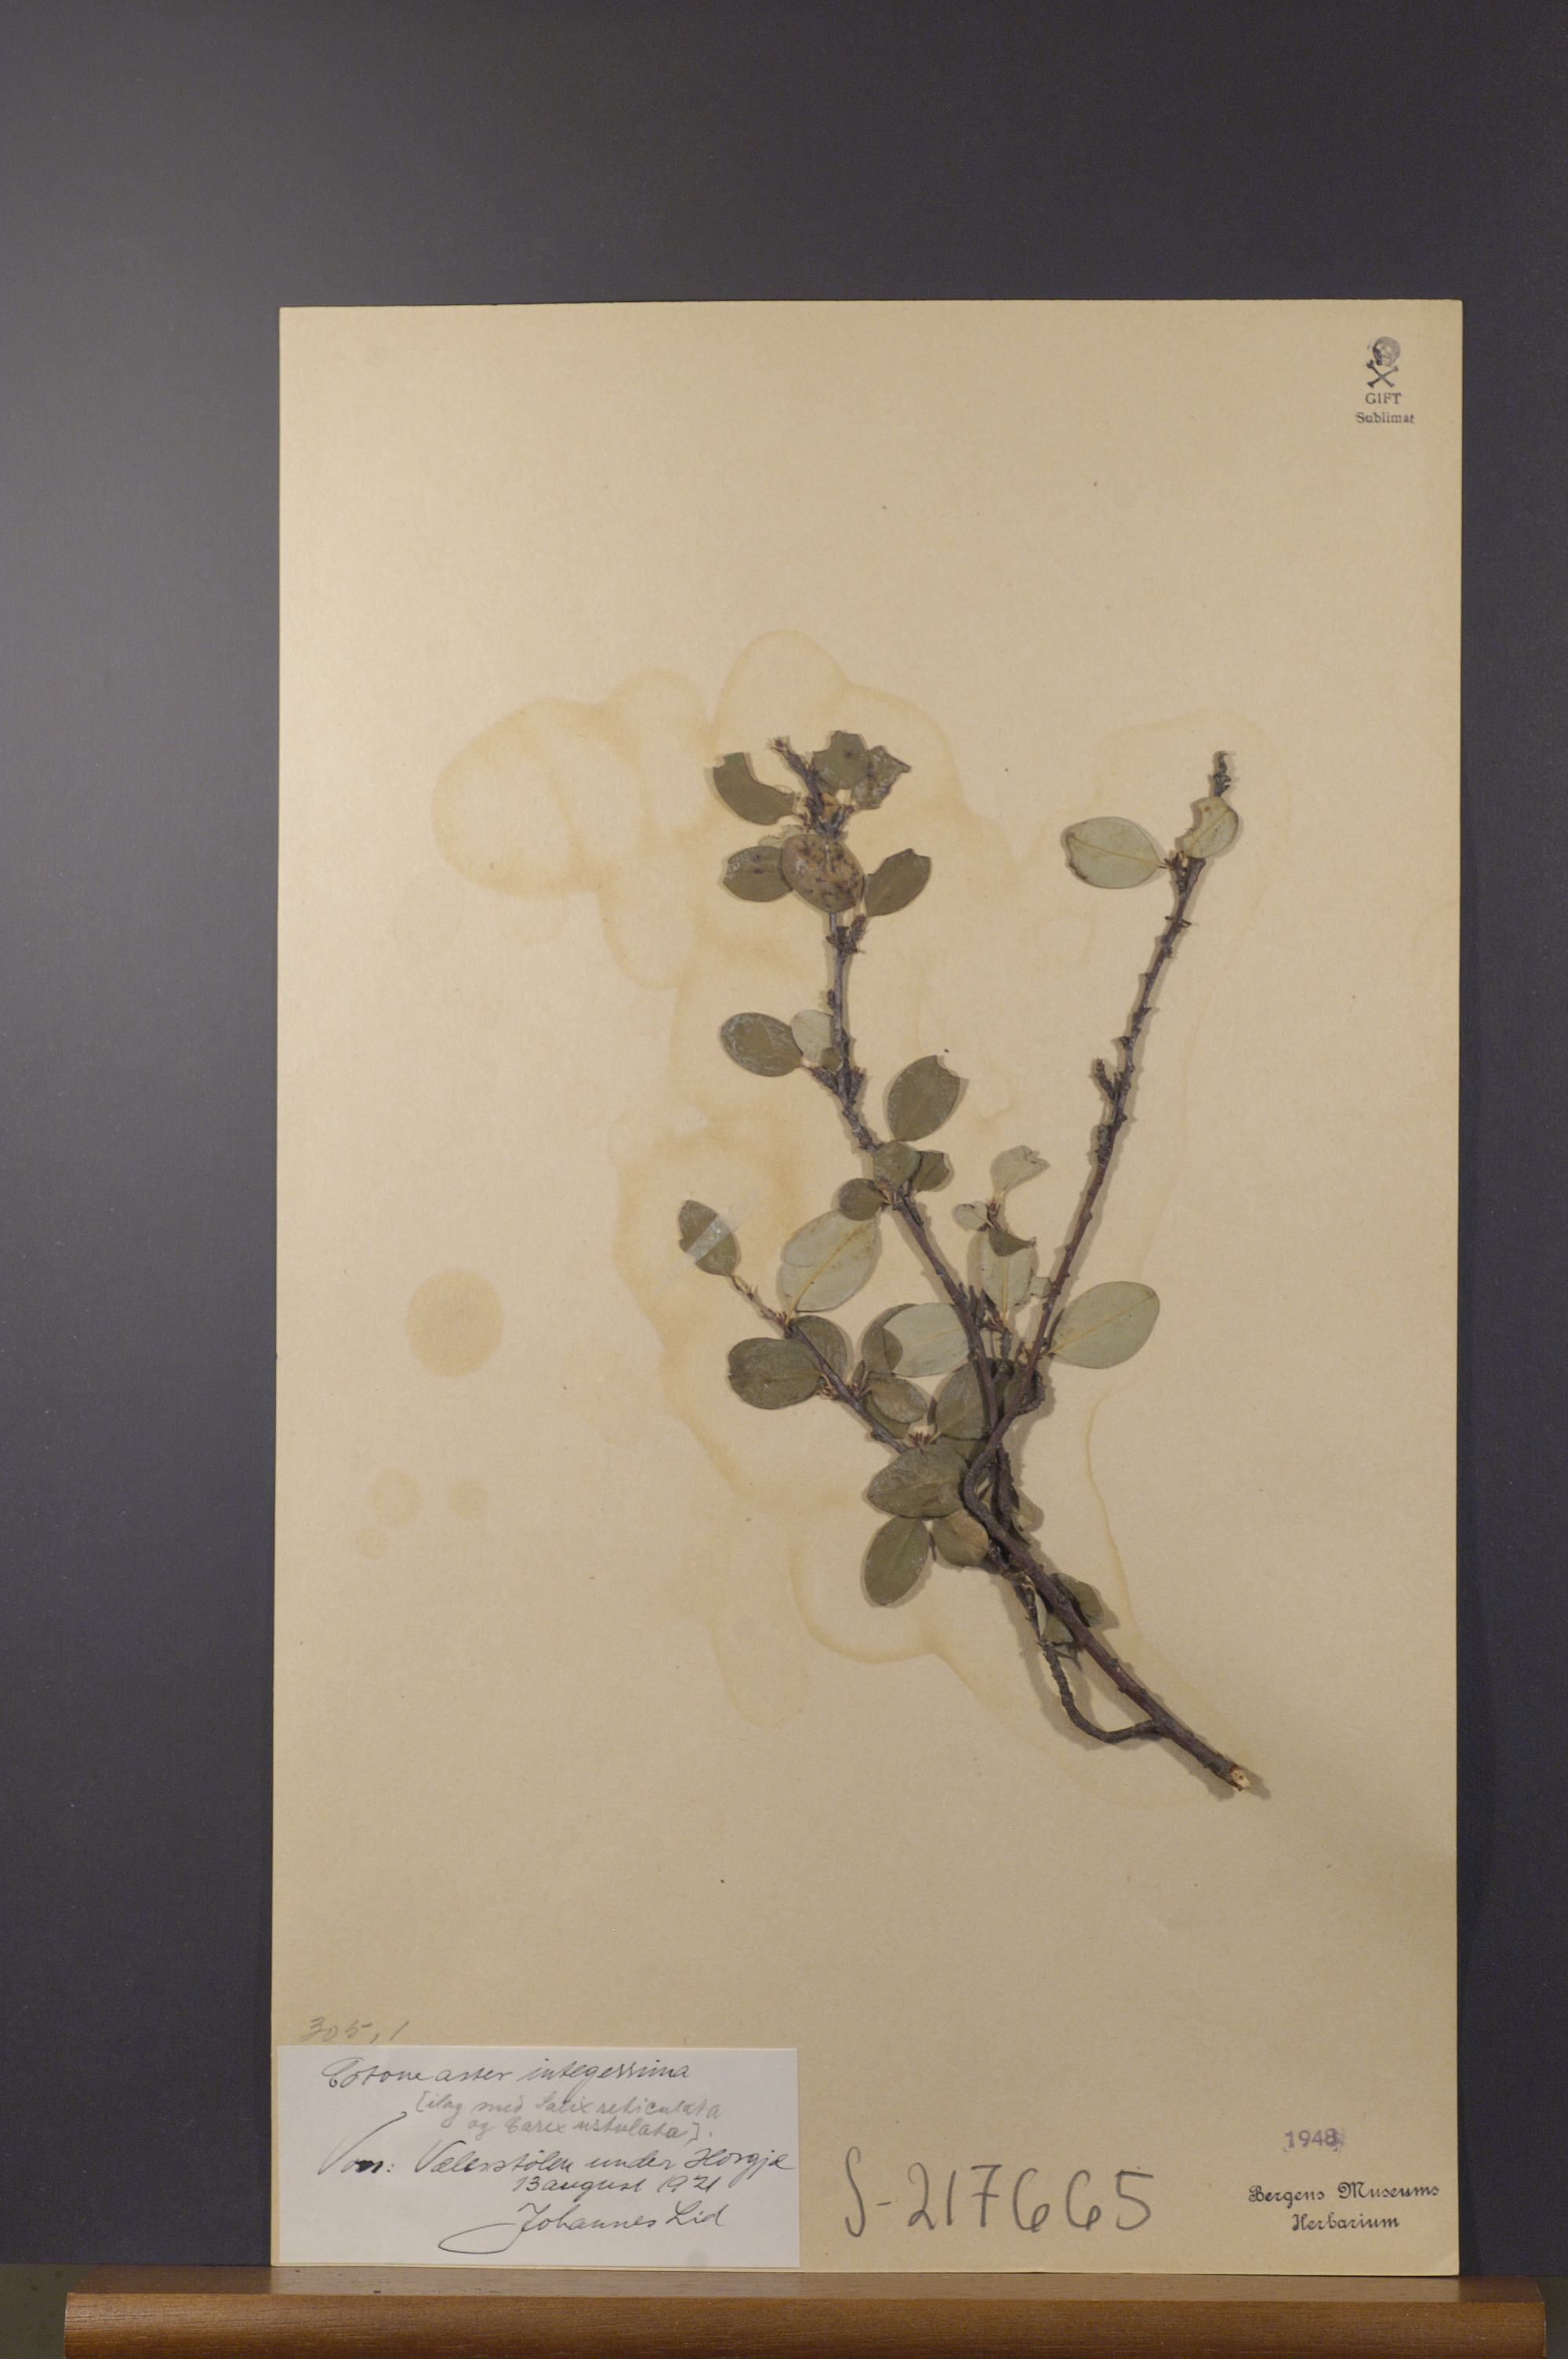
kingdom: Plantae
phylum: Tracheophyta
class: Magnoliopsida
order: Rosales
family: Rosaceae
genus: Cotoneaster
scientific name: Cotoneaster integerrimus
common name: Wild cotoneaster
